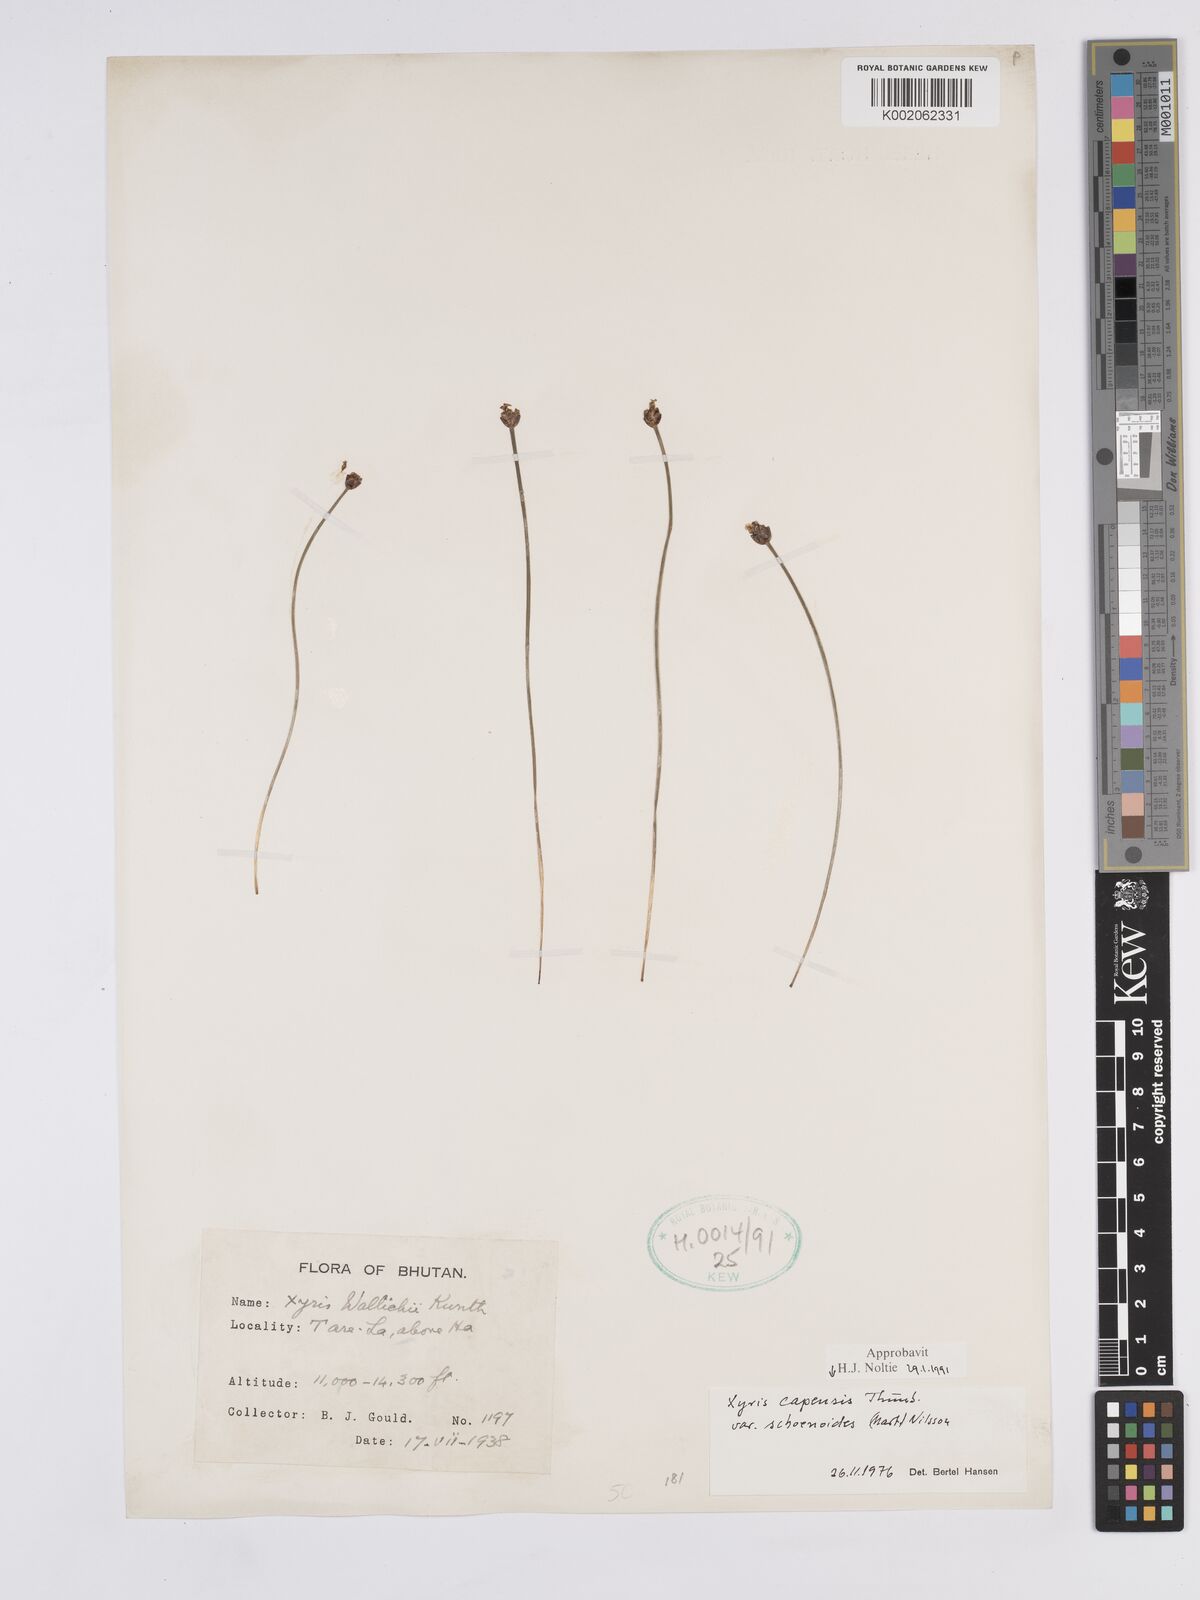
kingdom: Plantae
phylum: Tracheophyta
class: Liliopsida
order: Poales
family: Xyridaceae
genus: Xyris
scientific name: Xyris capensis
